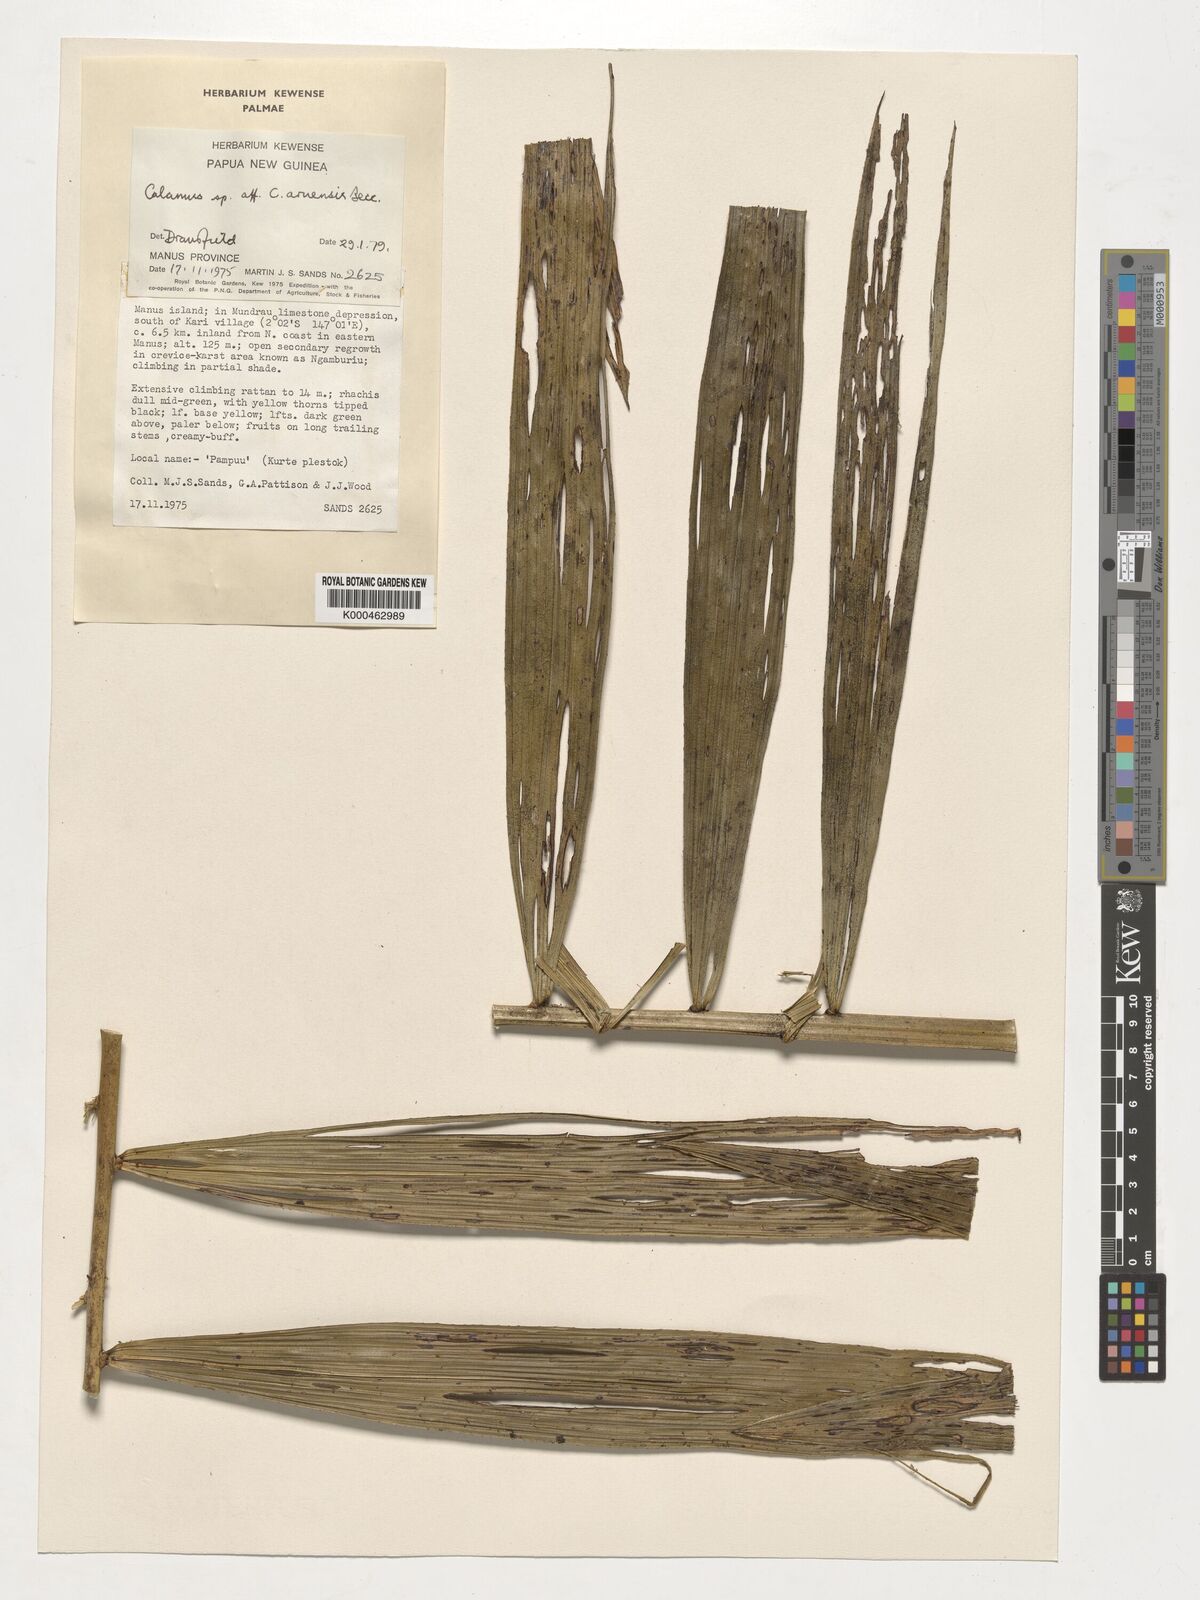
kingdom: Plantae
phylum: Tracheophyta
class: Liliopsida
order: Arecales
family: Arecaceae
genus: Calamus
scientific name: Calamus aruensis
